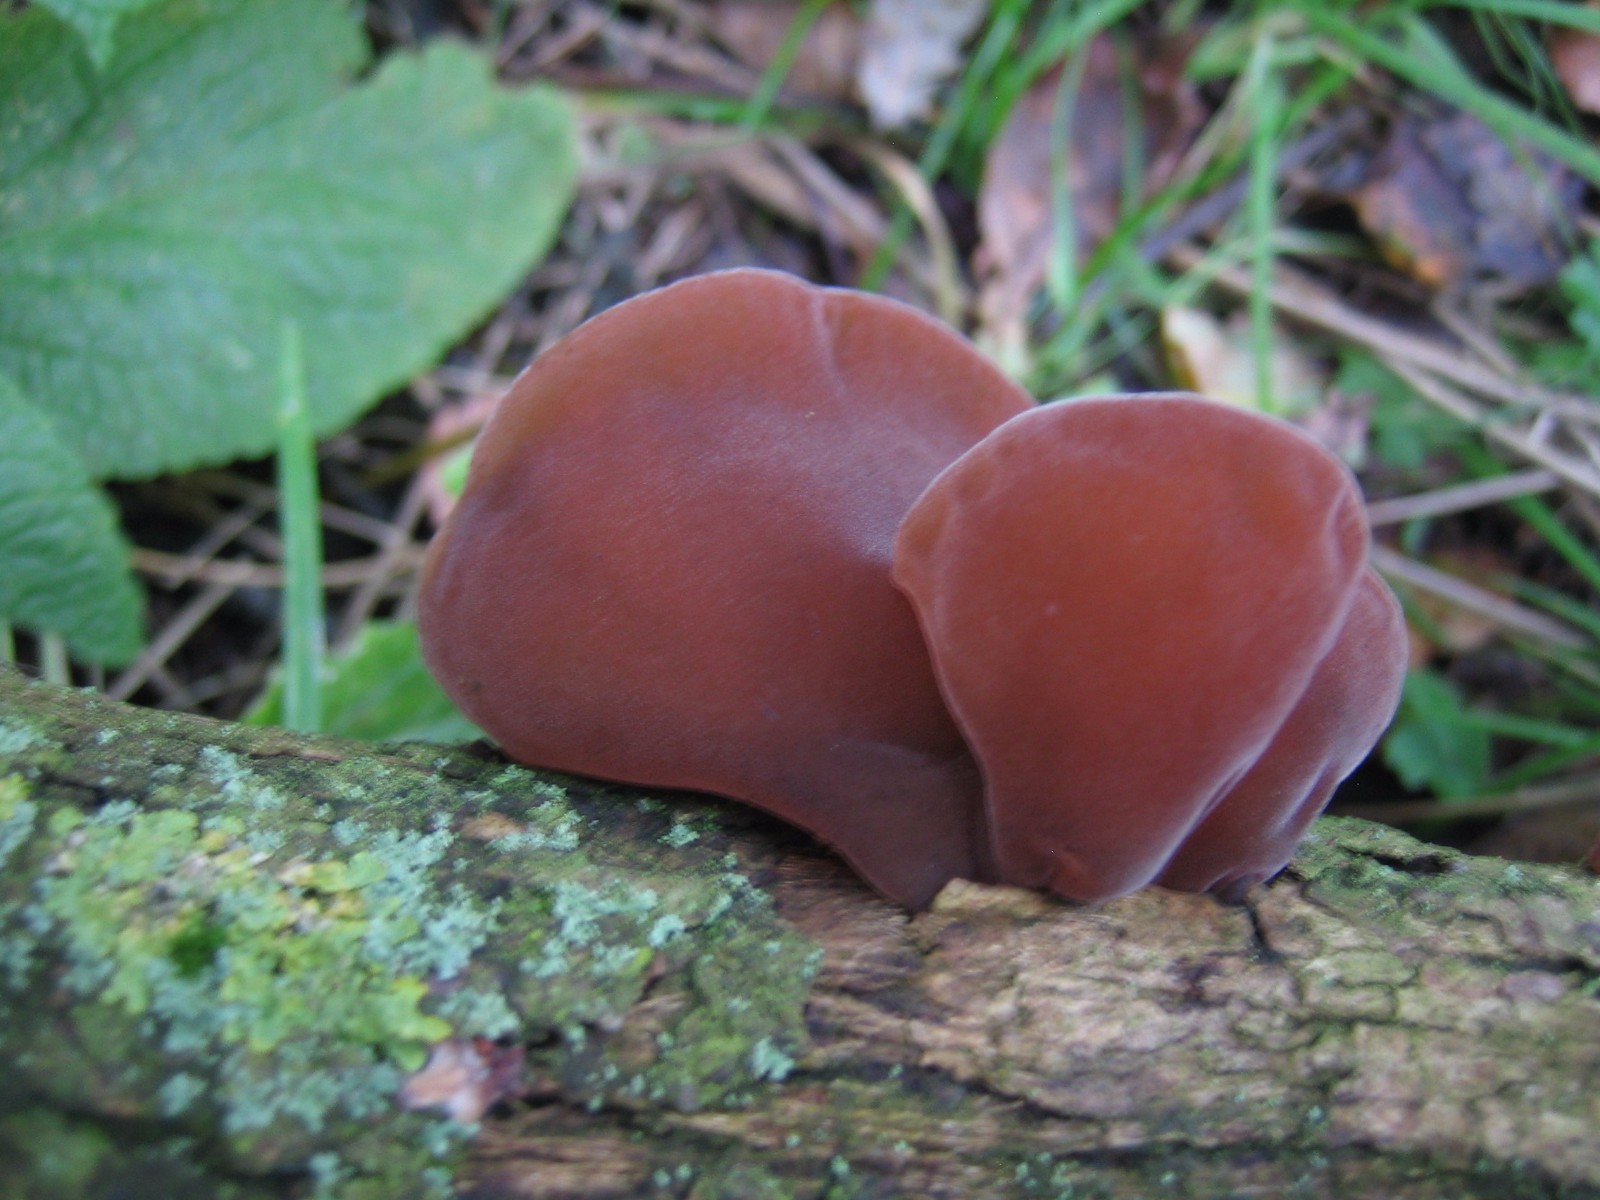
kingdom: Fungi
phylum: Basidiomycota
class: Agaricomycetes
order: Auriculariales
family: Auriculariaceae
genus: Auricularia
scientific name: Auricularia auricula-judae
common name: almindelig judasøre
